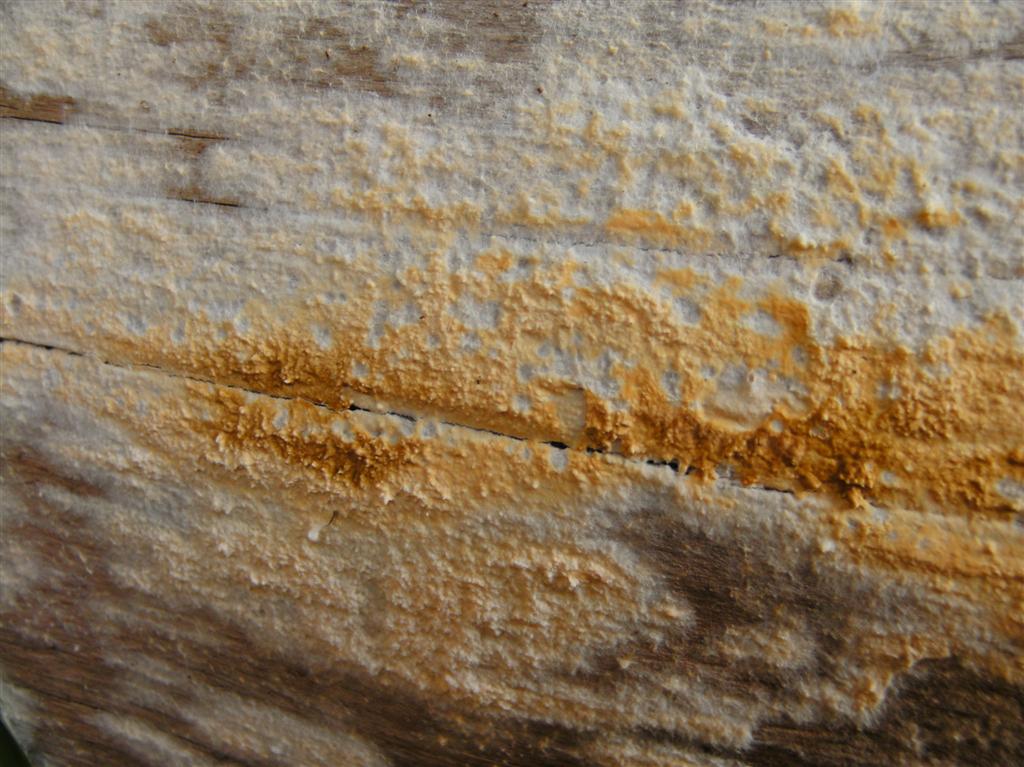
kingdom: Fungi
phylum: Basidiomycota
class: Agaricomycetes
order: Boletales
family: Coniophoraceae
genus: Coniophora
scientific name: Coniophora puteana
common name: gul tømmersvamp
